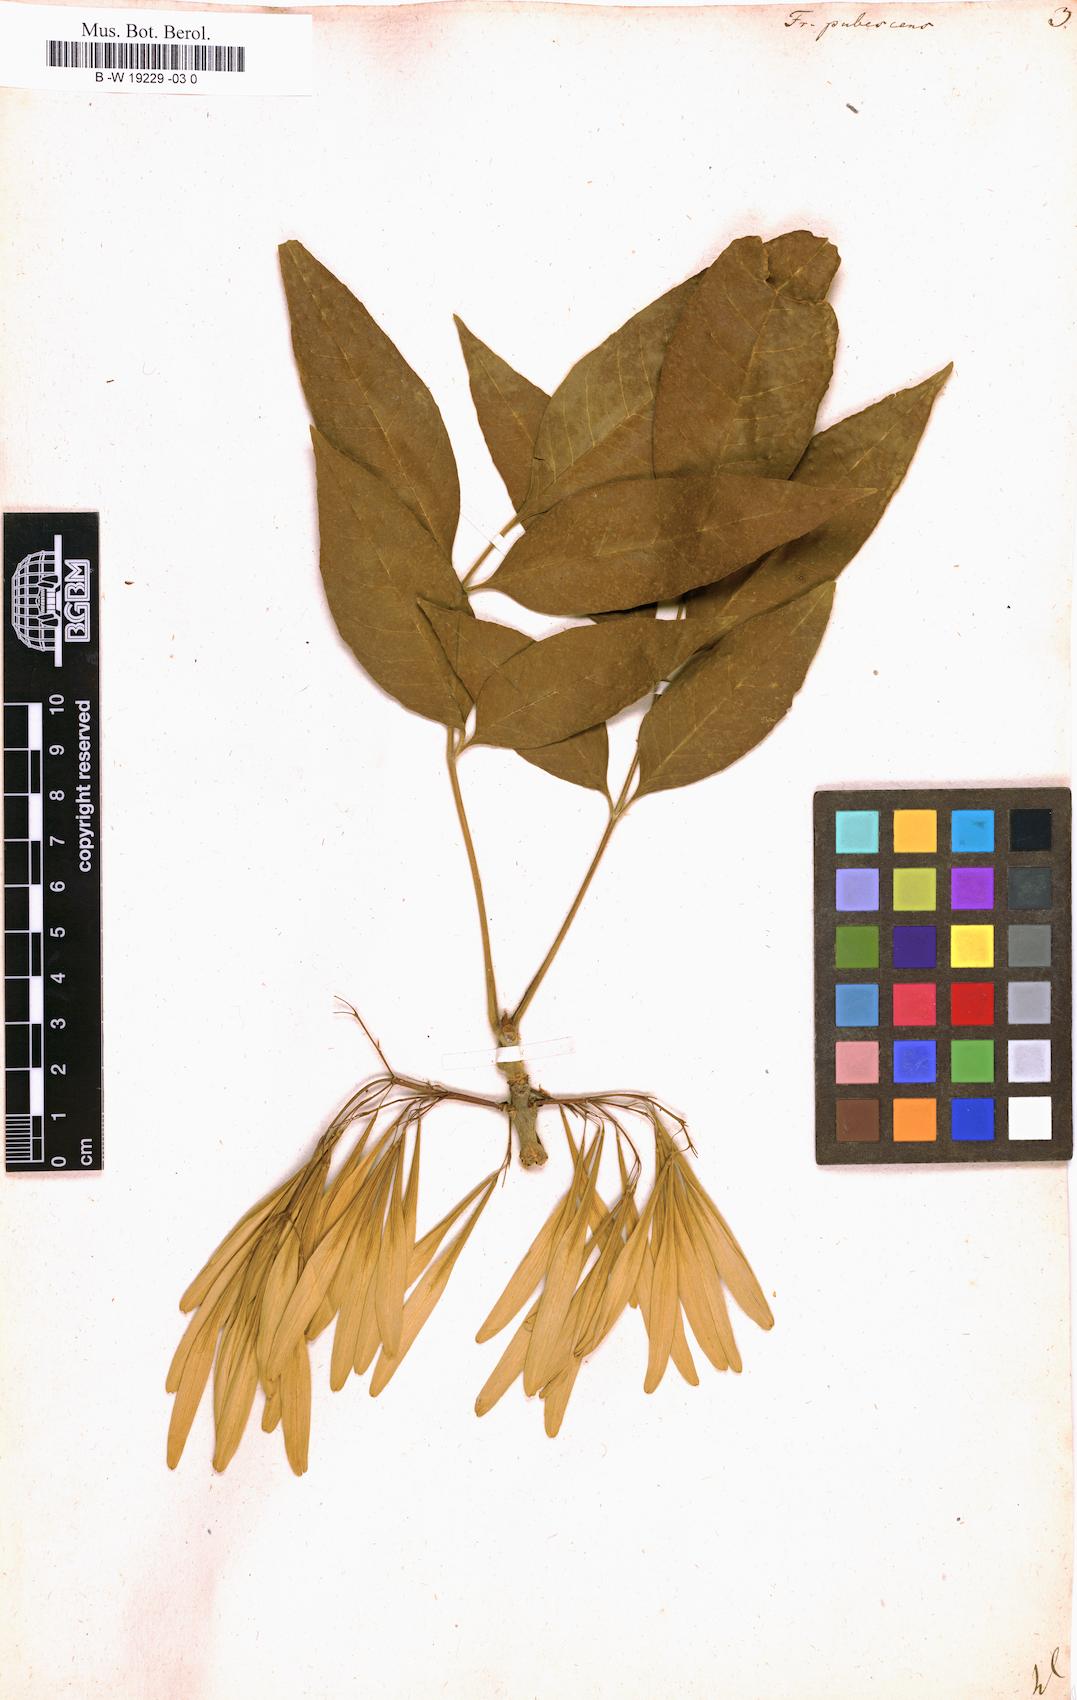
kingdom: Plantae
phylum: Tracheophyta
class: Magnoliopsida
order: Lamiales
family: Oleaceae
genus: Fraxinus
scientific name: Fraxinus pubescens
